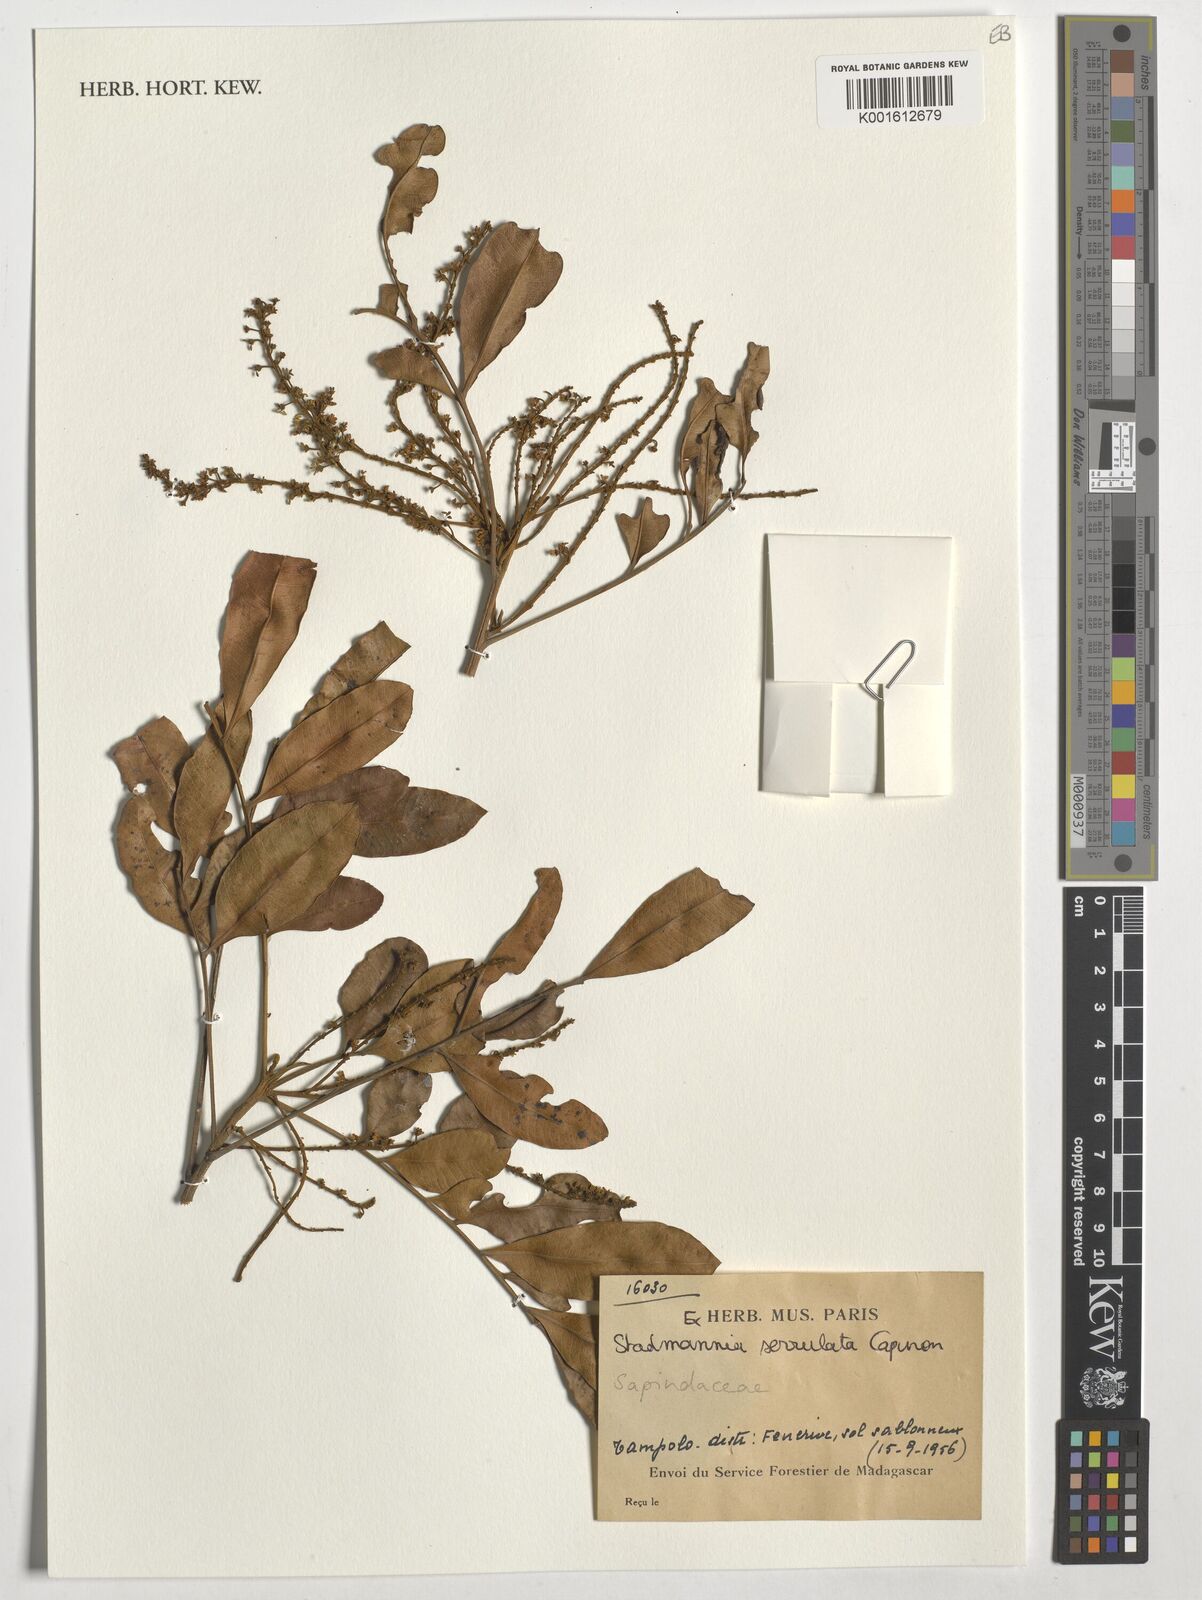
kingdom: Plantae
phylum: Tracheophyta
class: Magnoliopsida
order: Sapindales
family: Sapindaceae
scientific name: Sapindaceae
